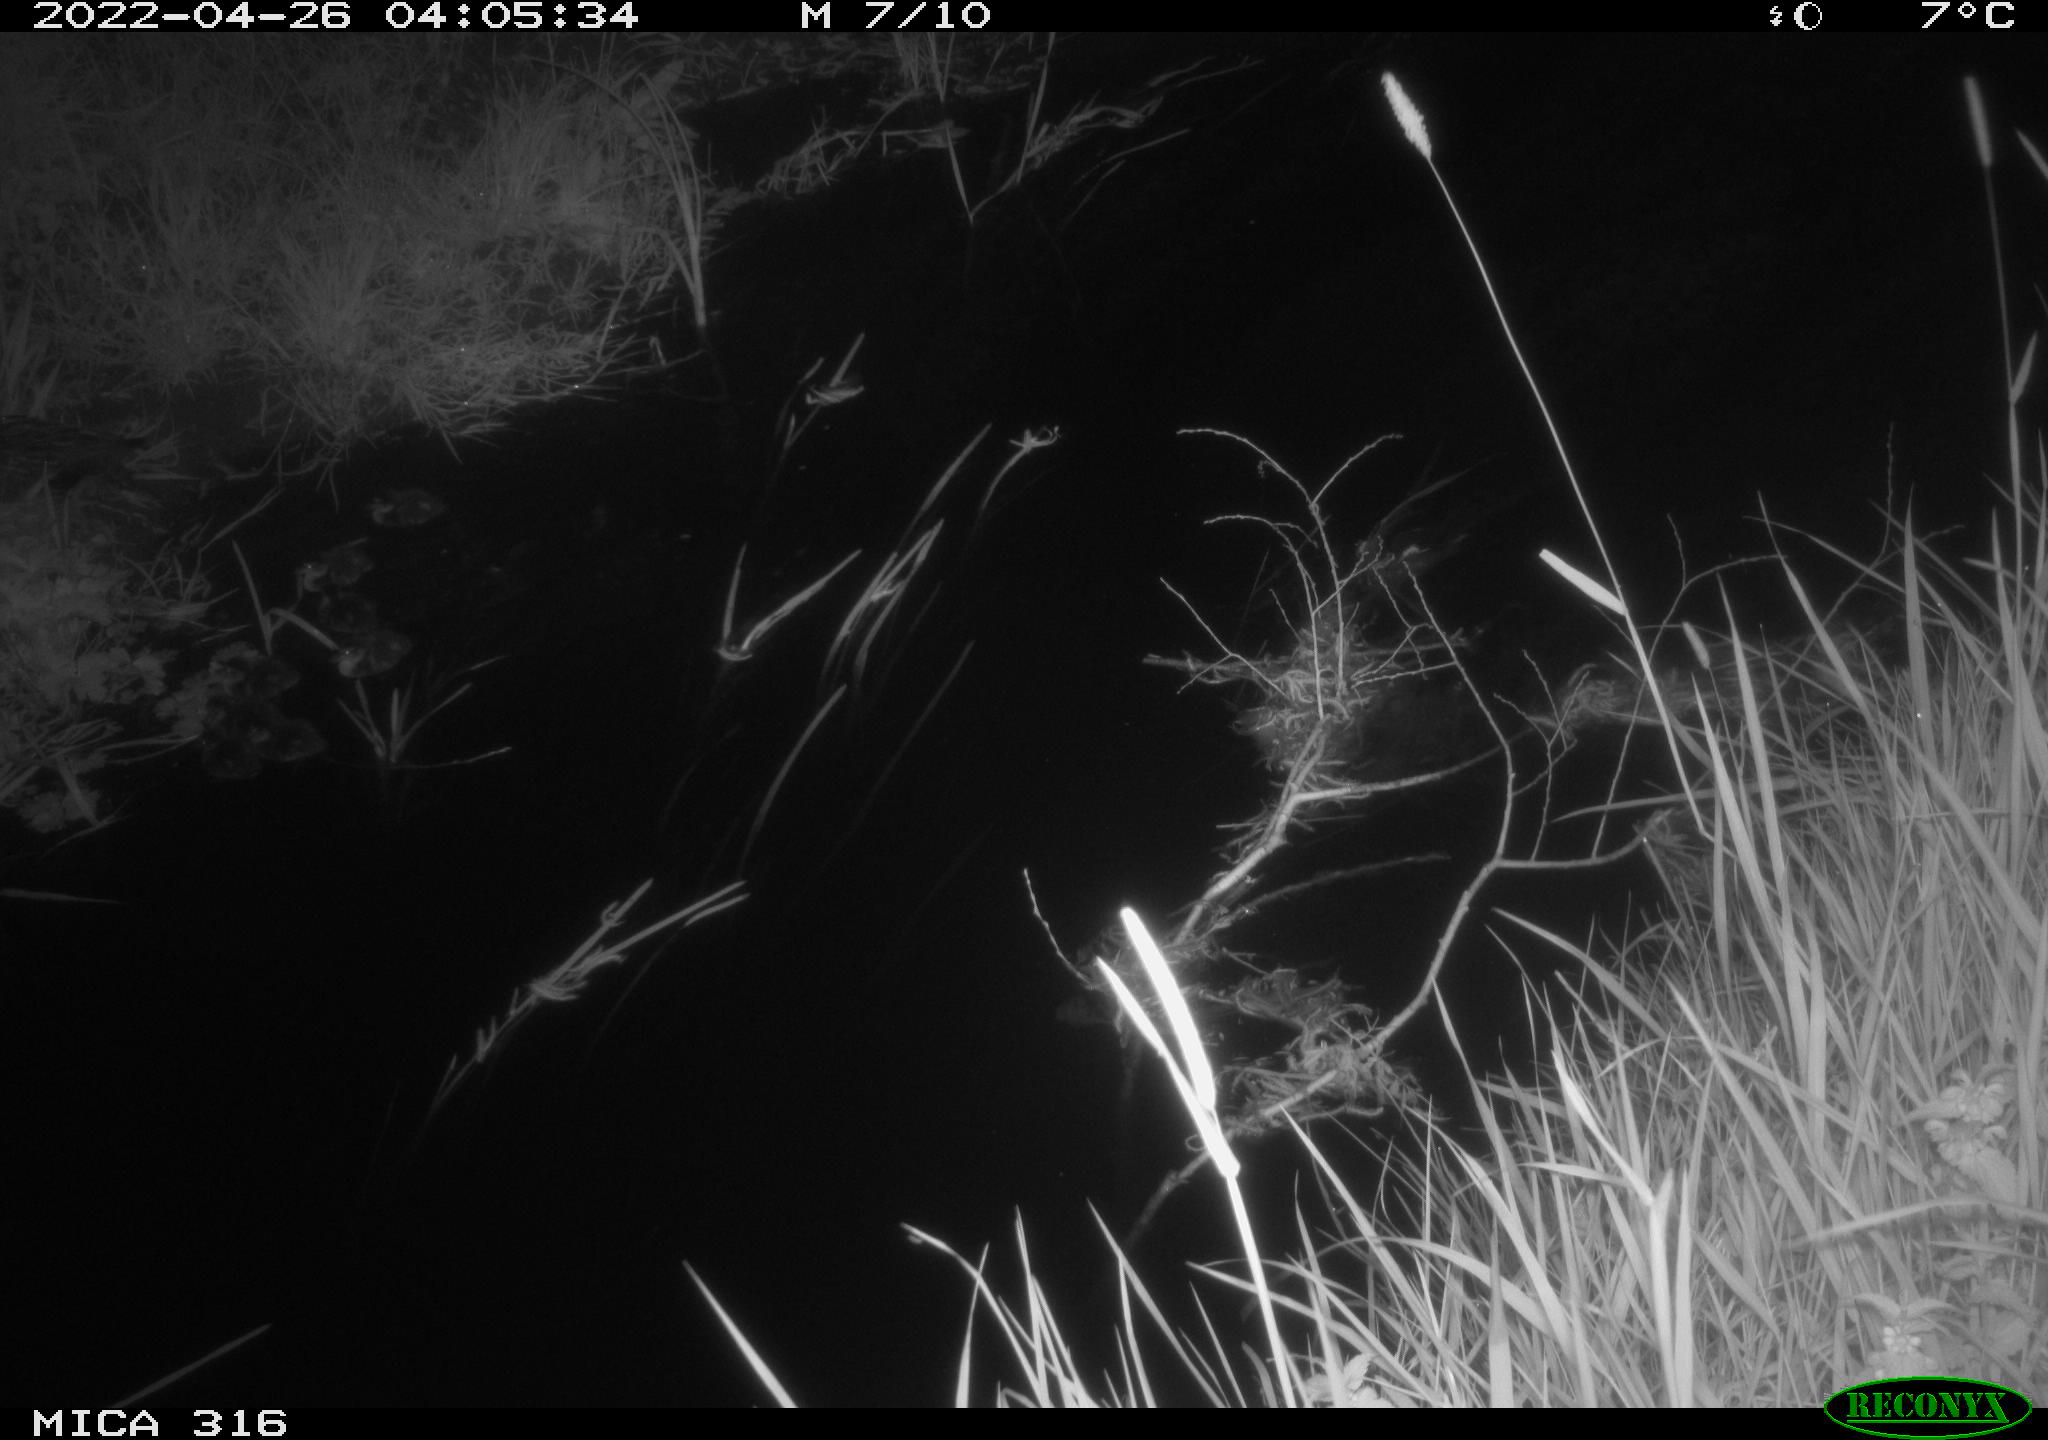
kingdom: Animalia
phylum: Chordata
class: Aves
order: Anseriformes
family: Anatidae
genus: Anas
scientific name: Anas platyrhynchos
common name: Mallard
